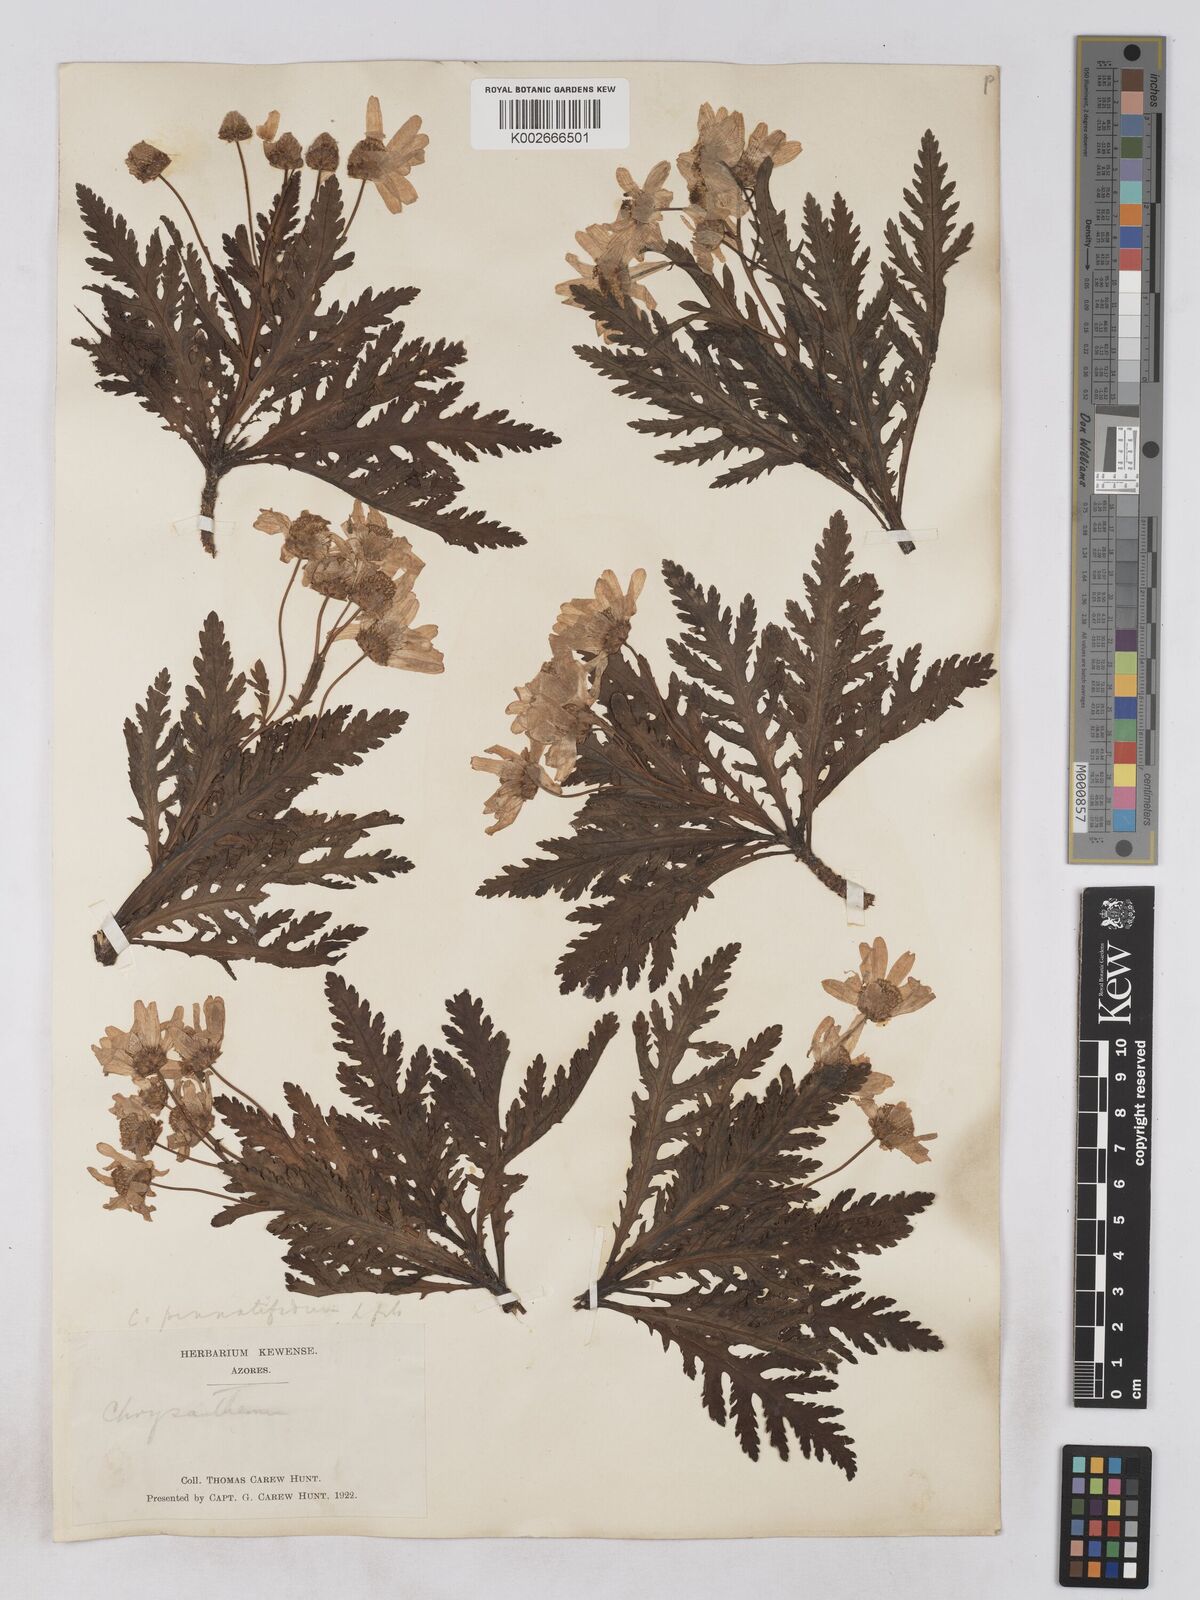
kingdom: Plantae
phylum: Tracheophyta
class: Magnoliopsida
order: Asterales
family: Asteraceae
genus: Argyranthemum
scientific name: Argyranthemum pinnatifidum
